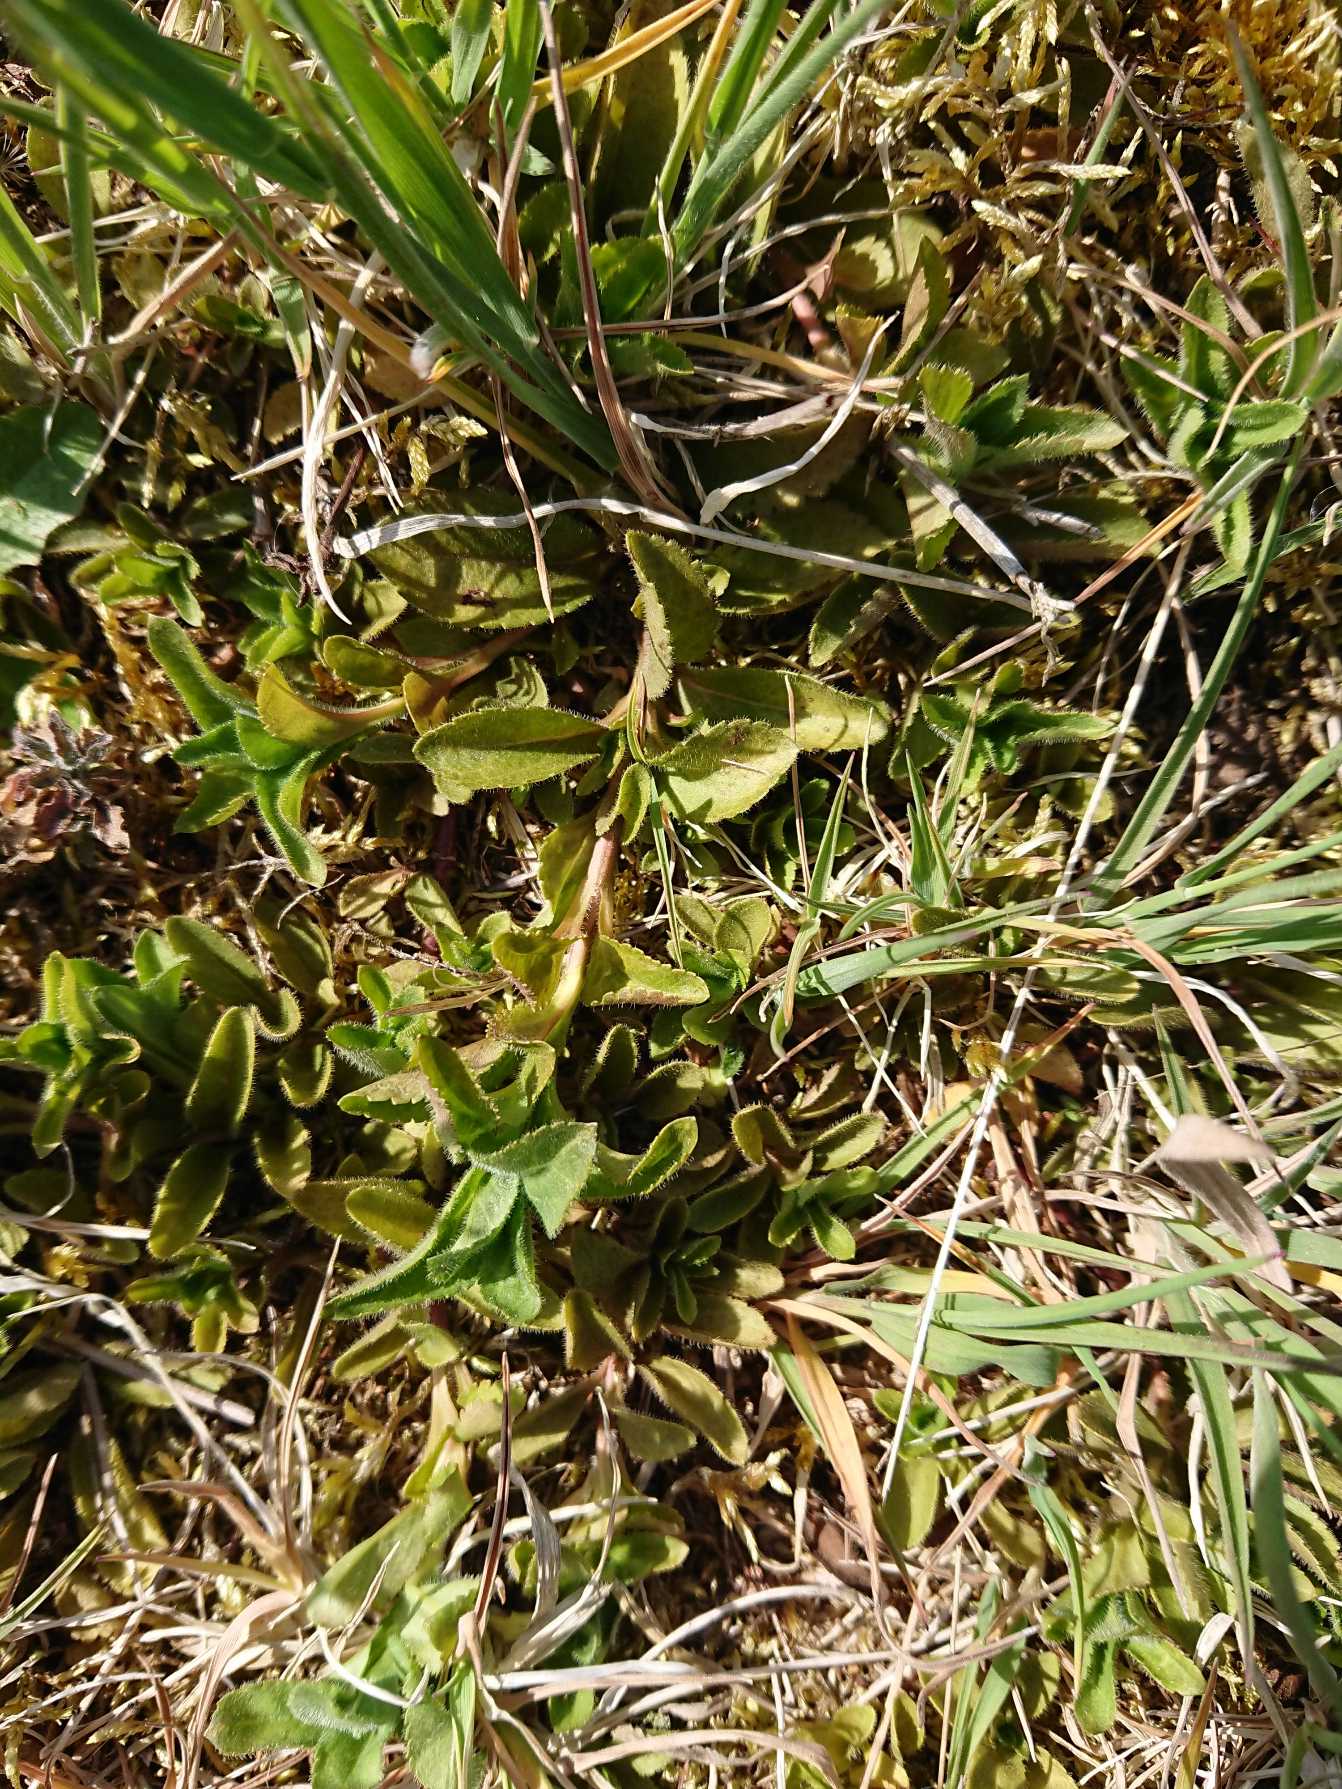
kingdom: Plantae
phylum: Tracheophyta
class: Magnoliopsida
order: Lamiales
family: Plantaginaceae
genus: Veronica
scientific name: Veronica officinalis
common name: Læge-ærenpris
